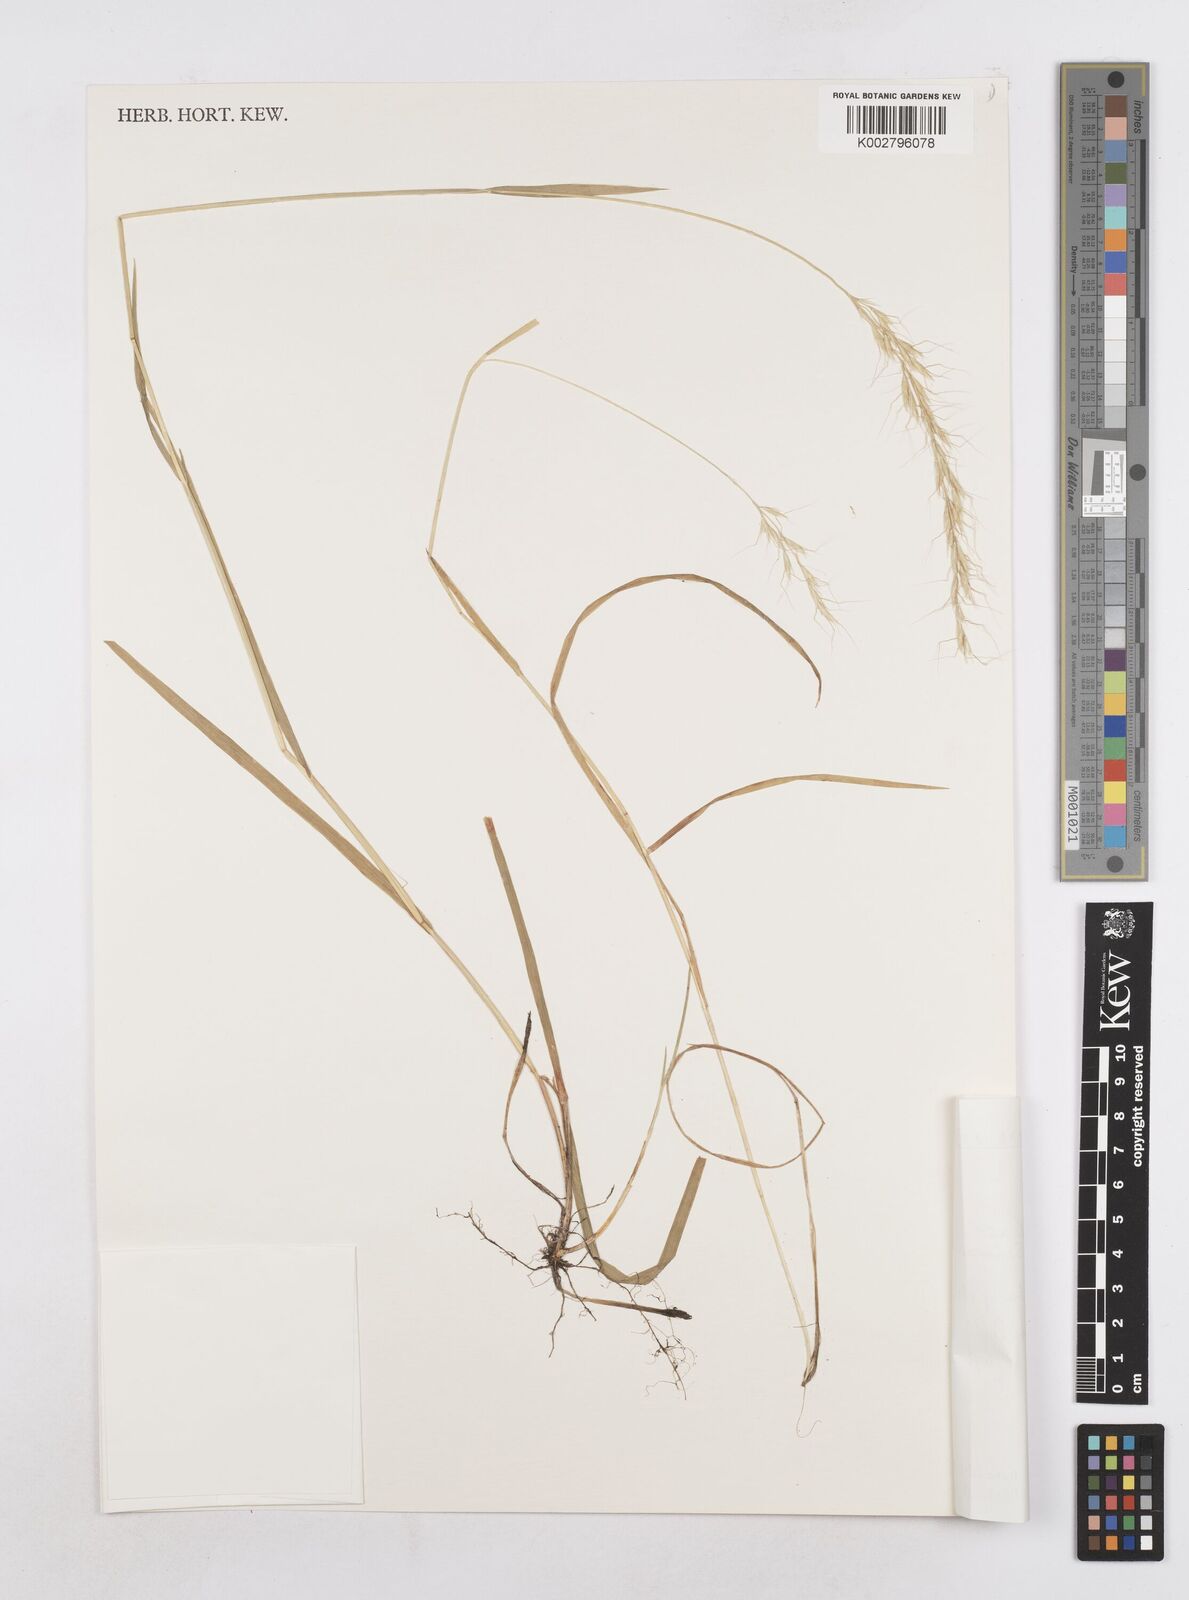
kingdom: Plantae
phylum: Tracheophyta
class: Liliopsida
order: Poales
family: Poaceae
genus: Trisetopsis
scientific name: Trisetopsis natalensis
